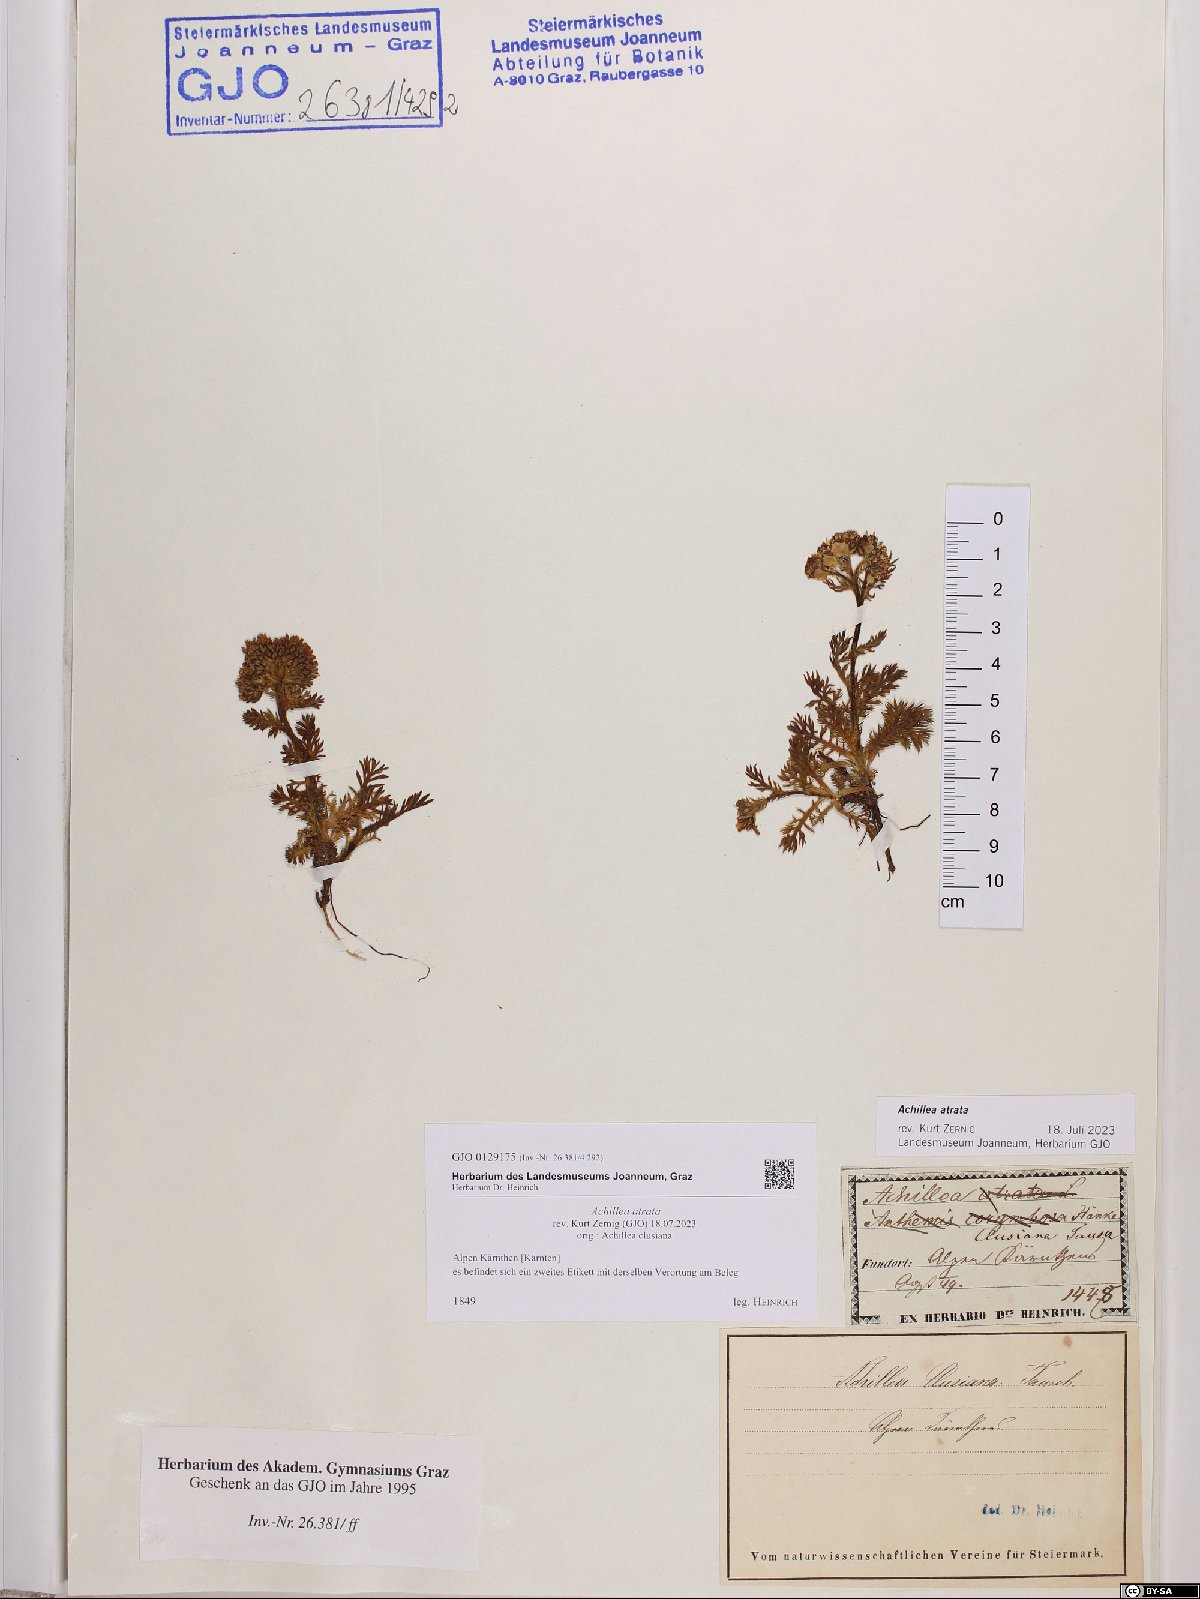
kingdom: Plantae
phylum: Tracheophyta
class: Magnoliopsida
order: Asterales
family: Asteraceae
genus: Achillea
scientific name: Achillea atrata
